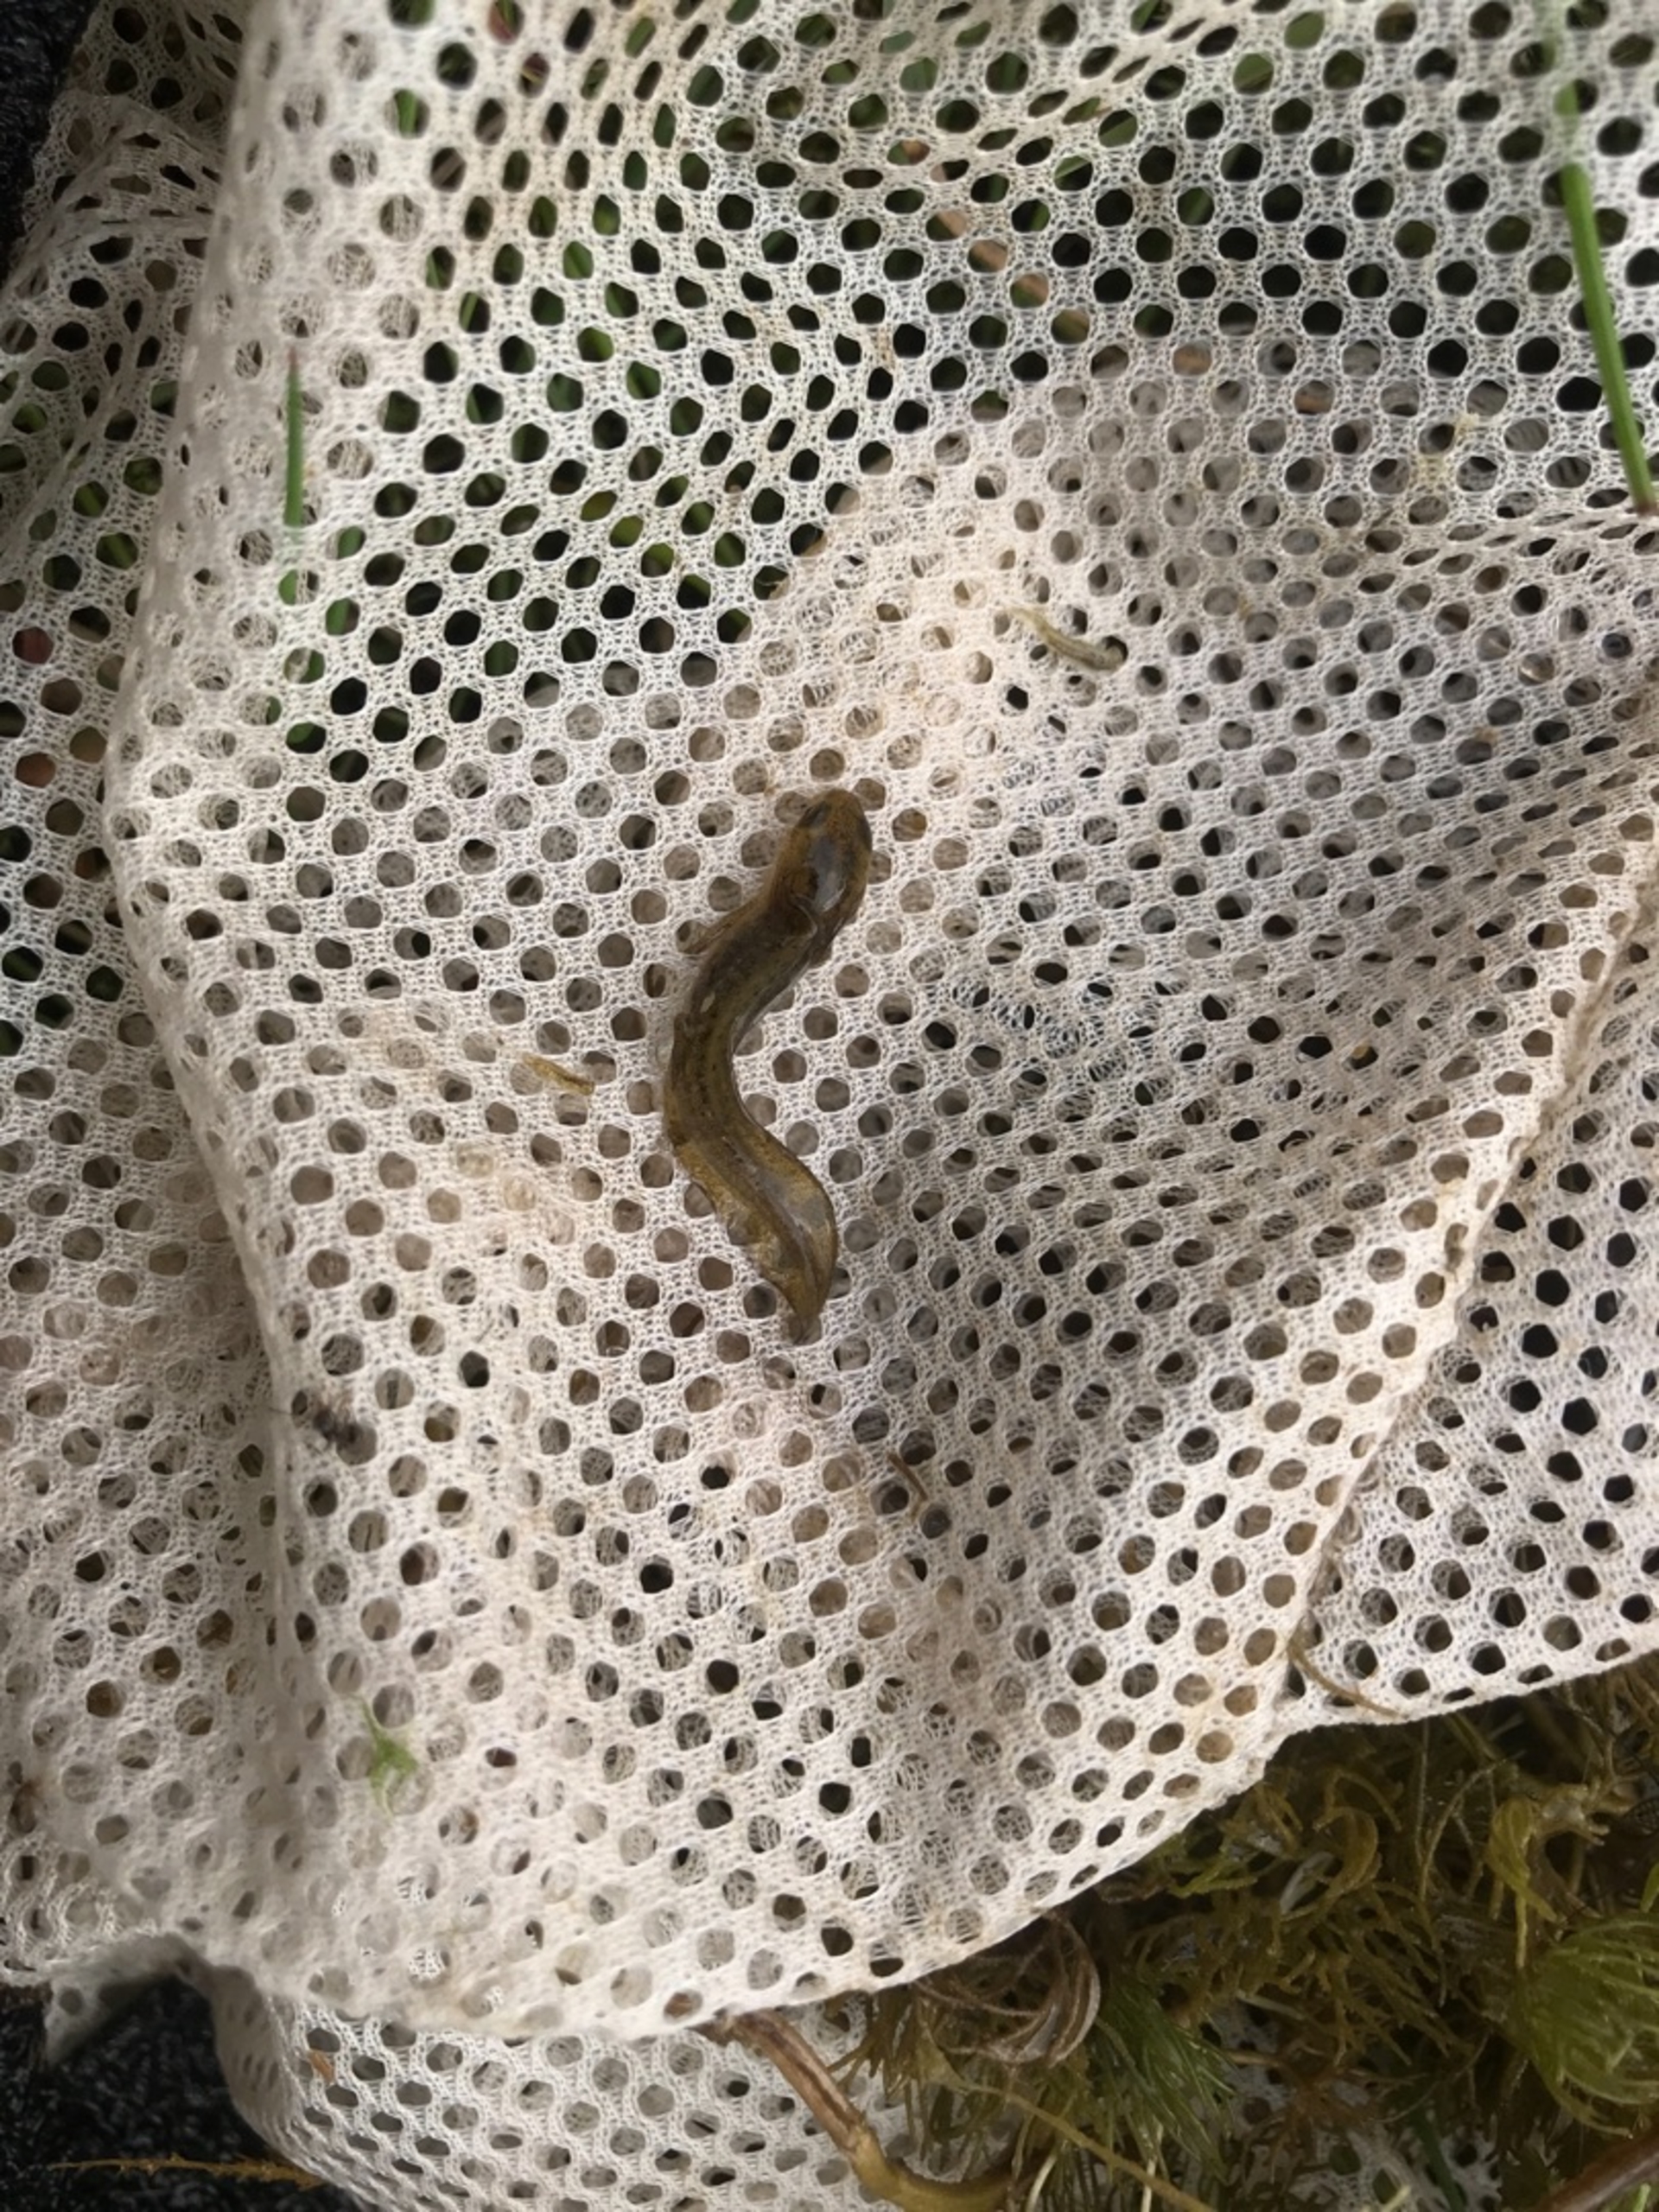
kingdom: Animalia
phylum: Chordata
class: Amphibia
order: Caudata
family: Salamandridae
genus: Lissotriton
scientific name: Lissotriton vulgaris
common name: Lille vandsalamander
